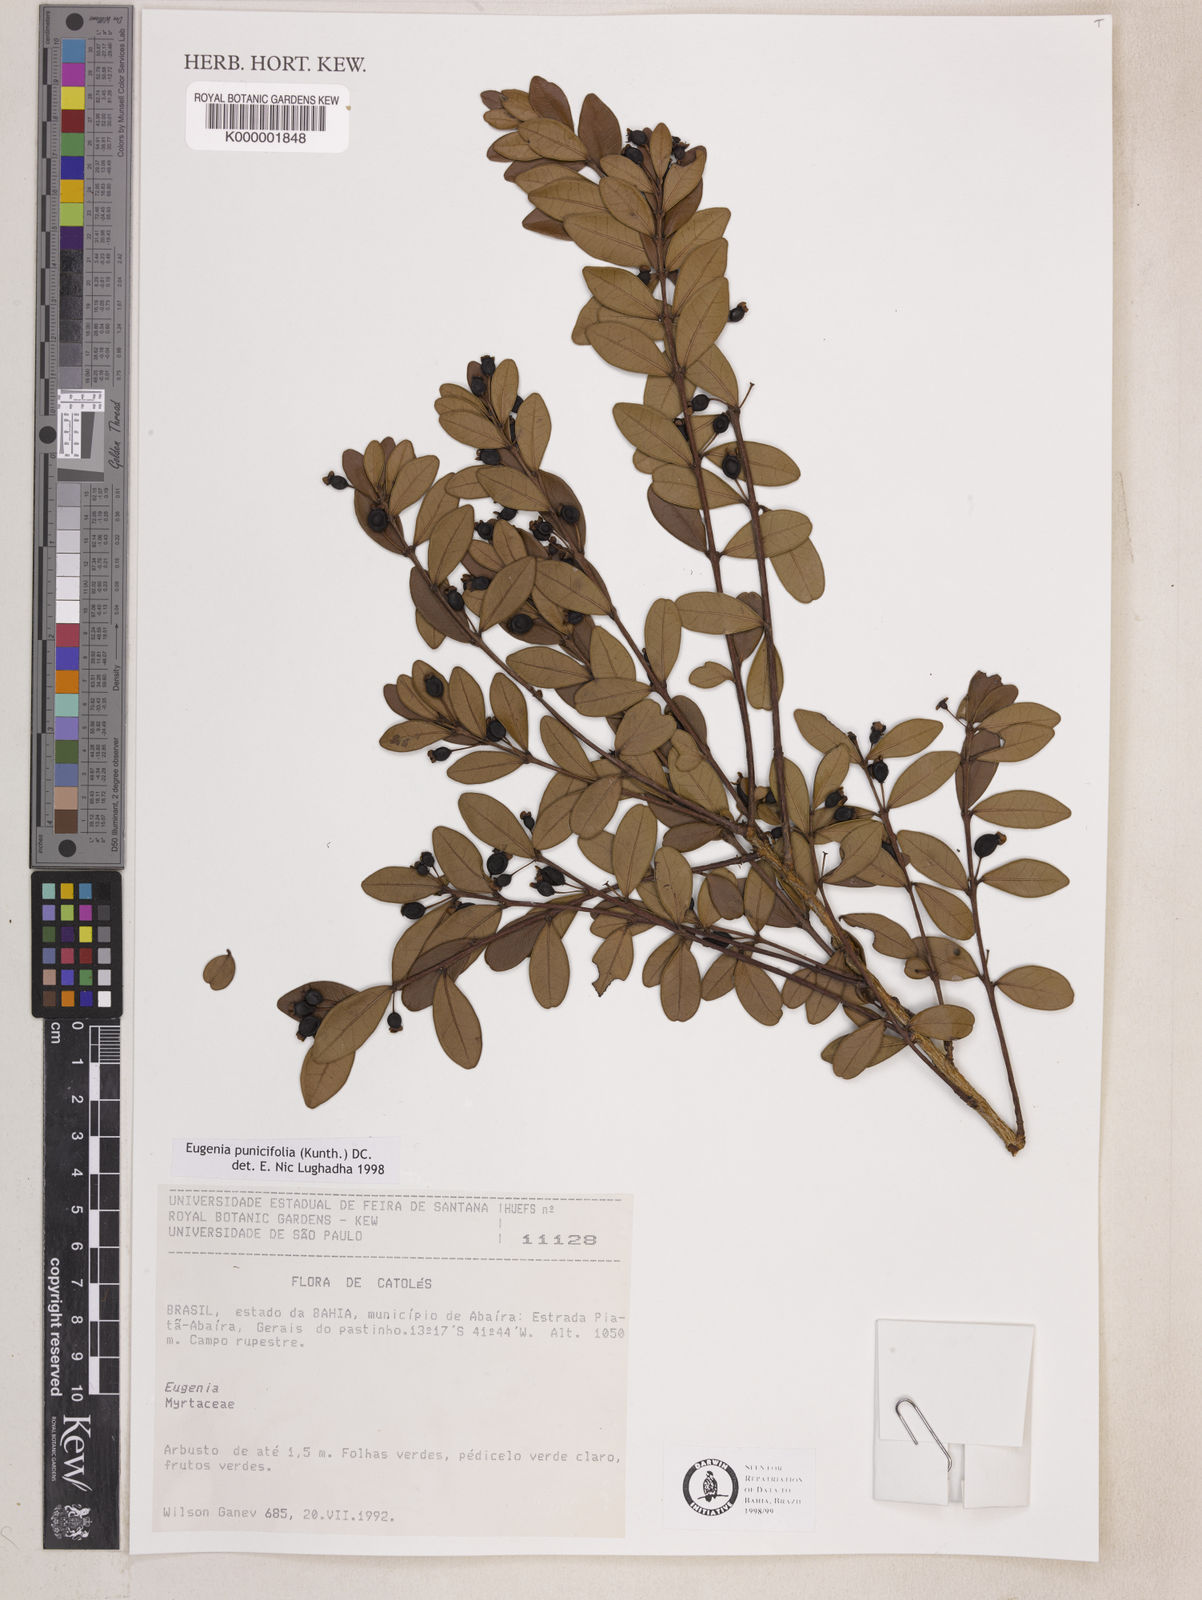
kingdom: Plantae
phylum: Tracheophyta
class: Magnoliopsida
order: Myrtales
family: Myrtaceae
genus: Eugenia
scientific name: Eugenia punicifolia
